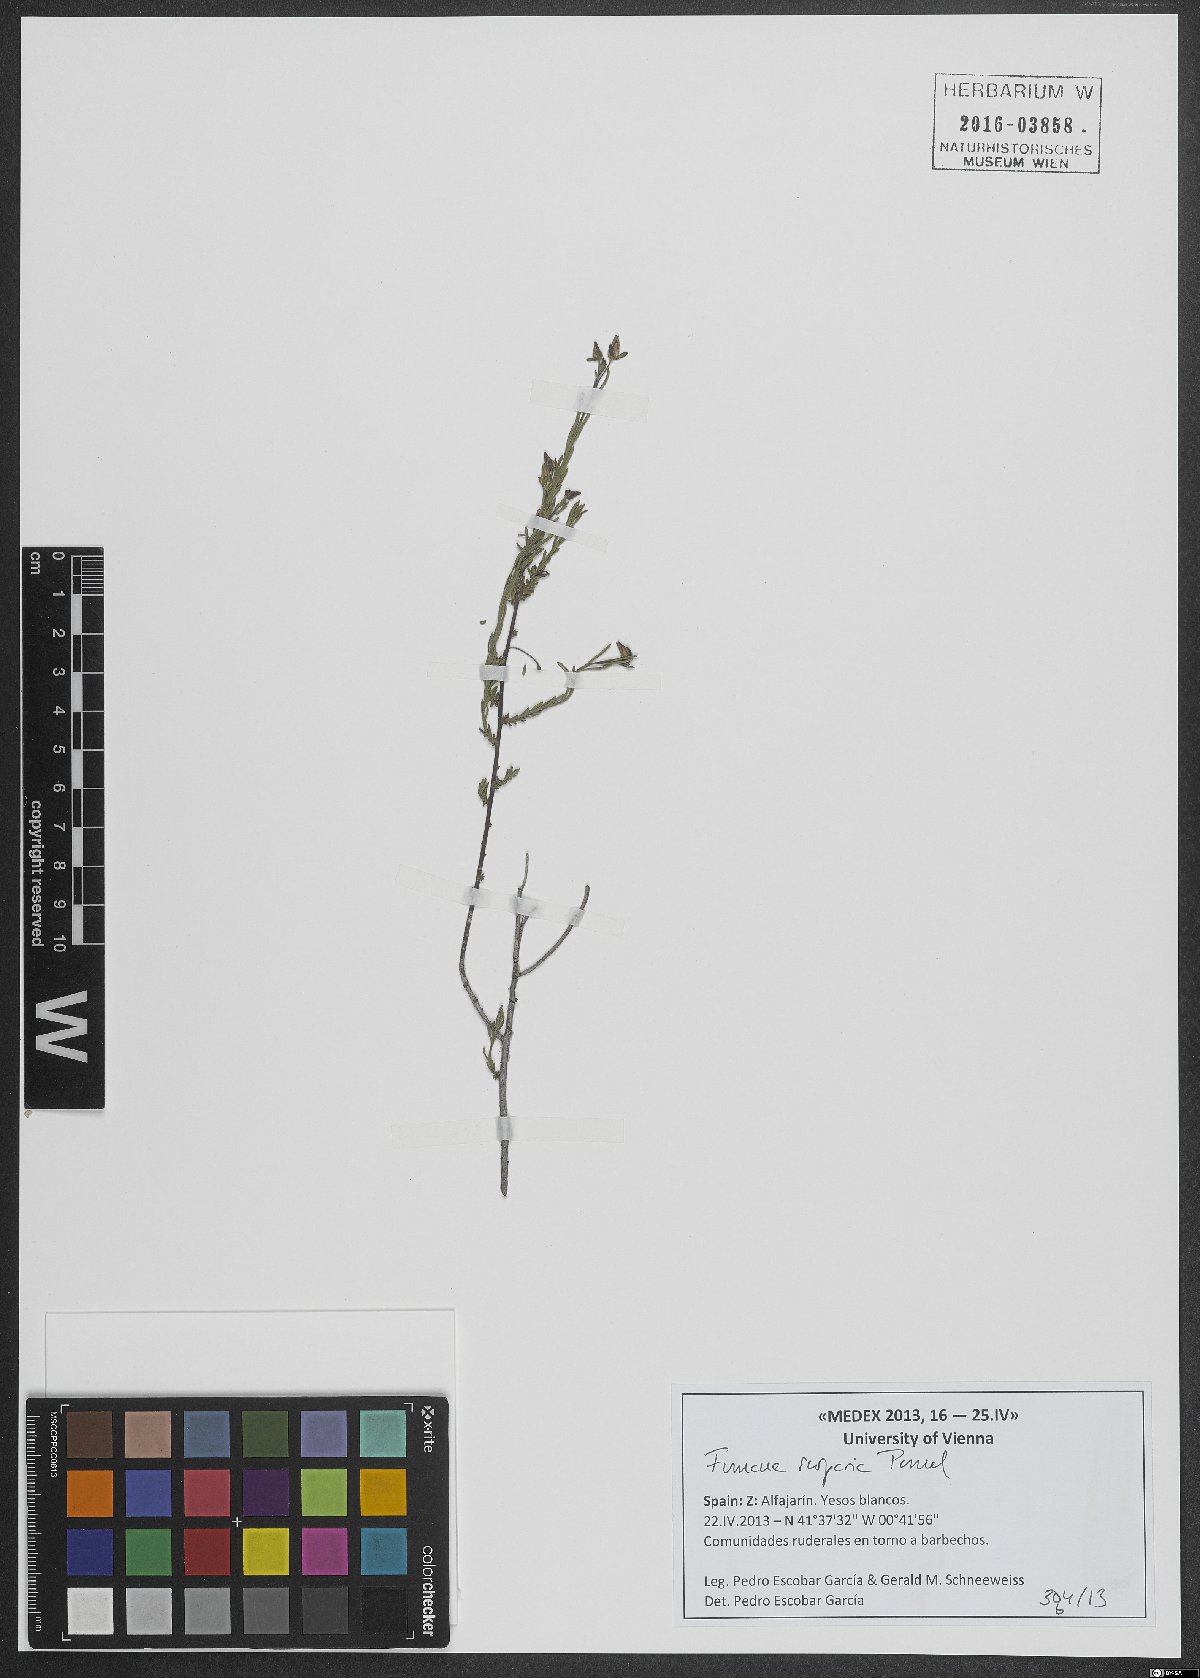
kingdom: Plantae
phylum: Tracheophyta
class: Magnoliopsida
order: Malvales
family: Cistaceae
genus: Fumana
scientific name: Fumana scoparia
